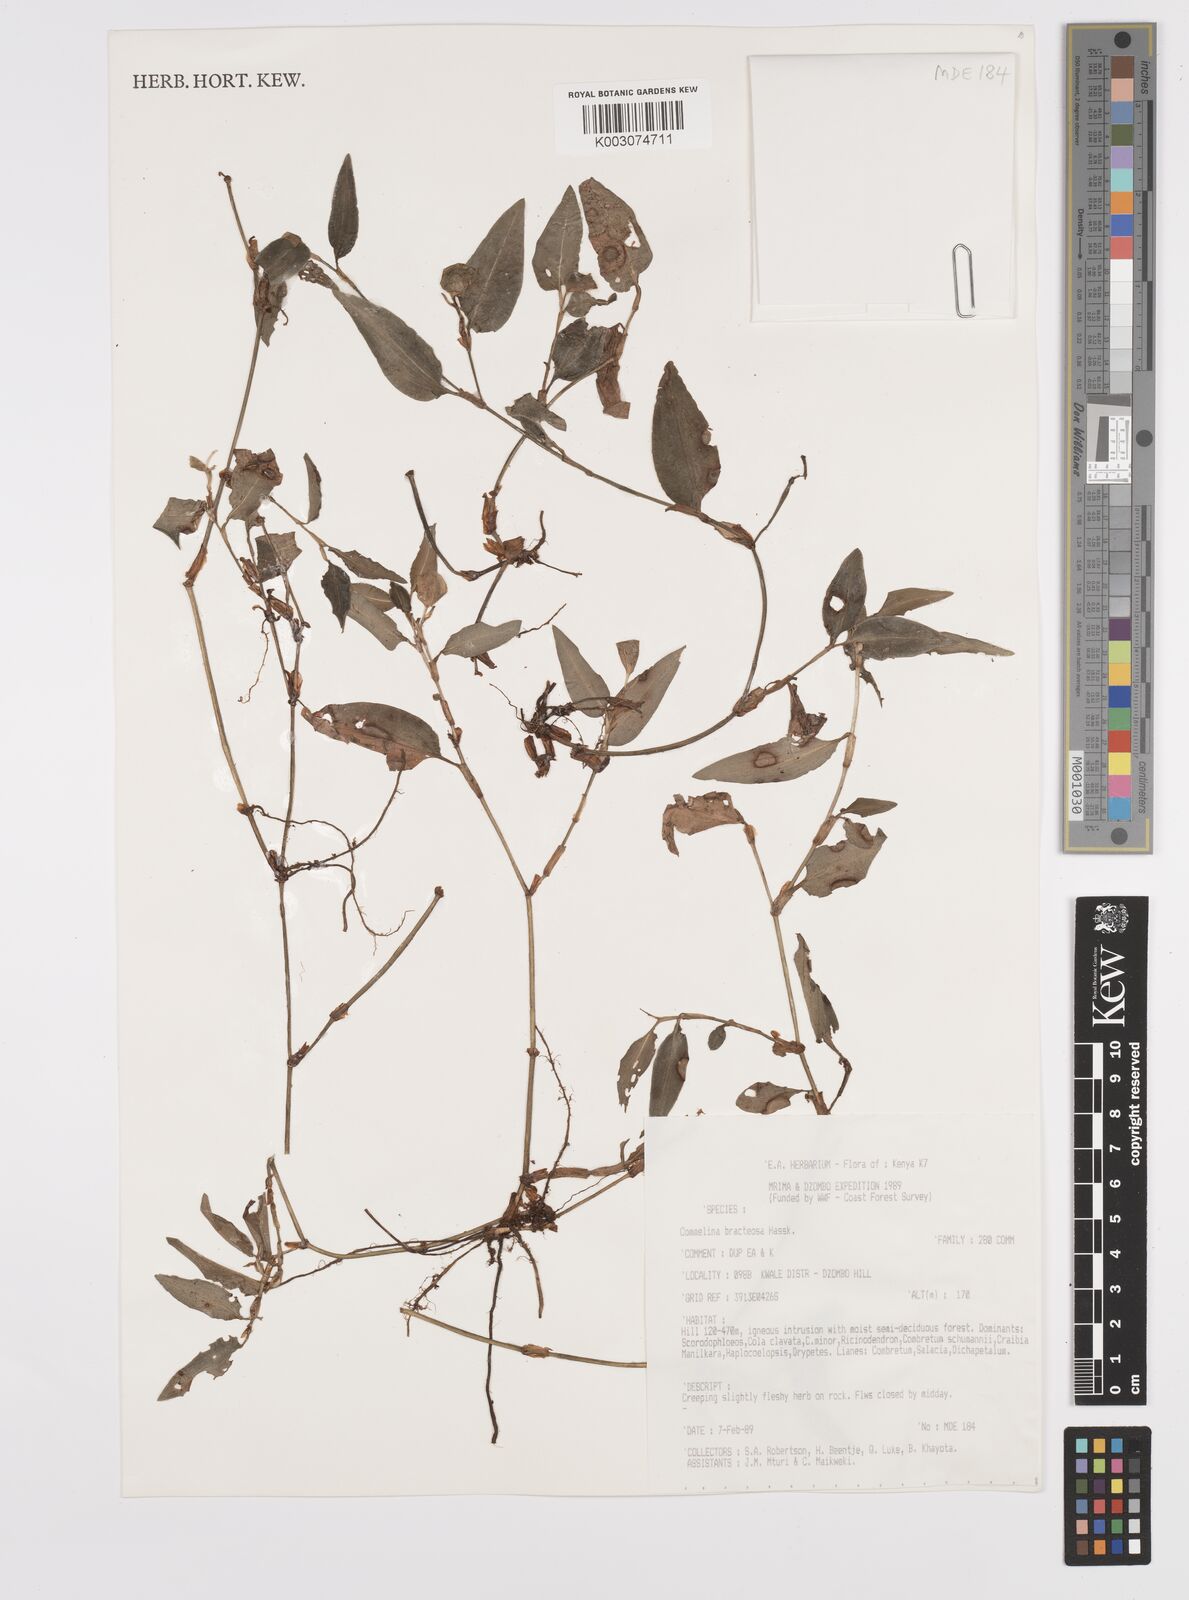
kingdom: Plantae
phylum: Tracheophyta
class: Liliopsida
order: Commelinales
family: Commelinaceae
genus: Commelina
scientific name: Commelina bracteosa
